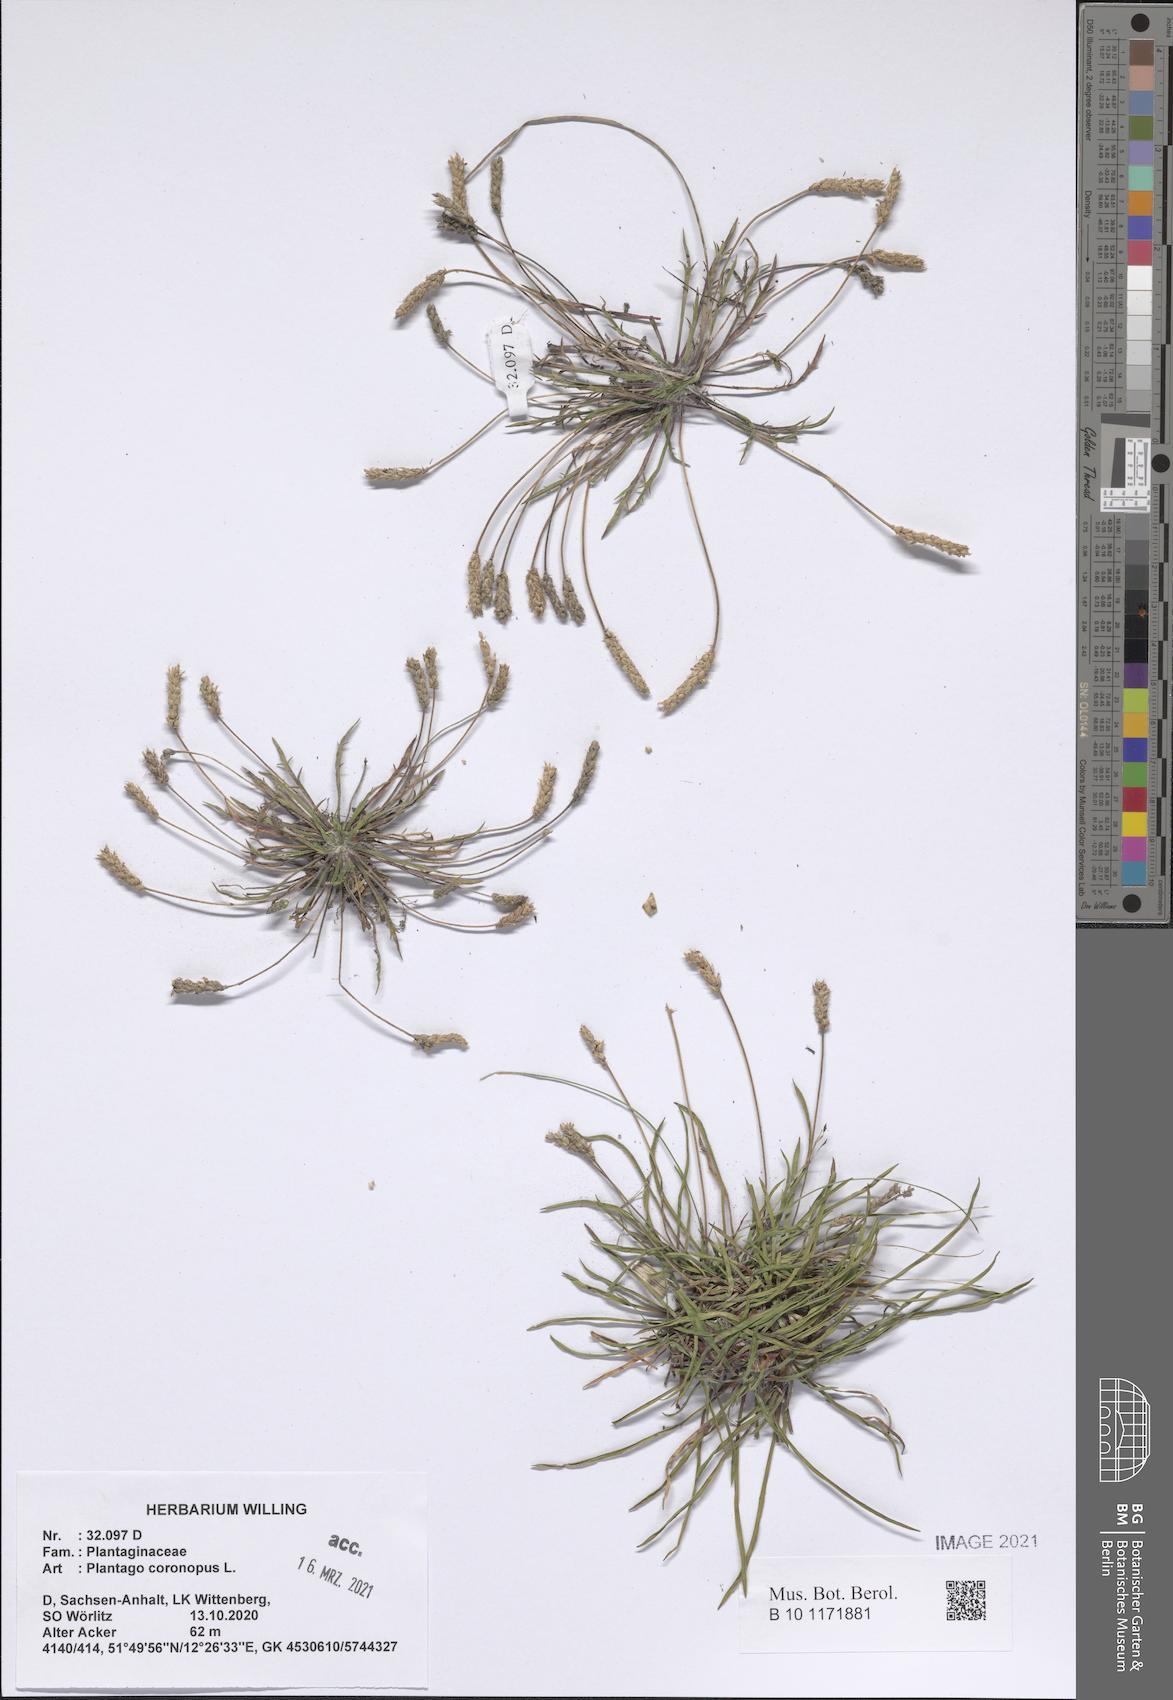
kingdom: Plantae
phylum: Tracheophyta
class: Magnoliopsida
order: Lamiales
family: Plantaginaceae
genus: Plantago
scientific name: Plantago coronopus
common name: Buck's-horn plantain
